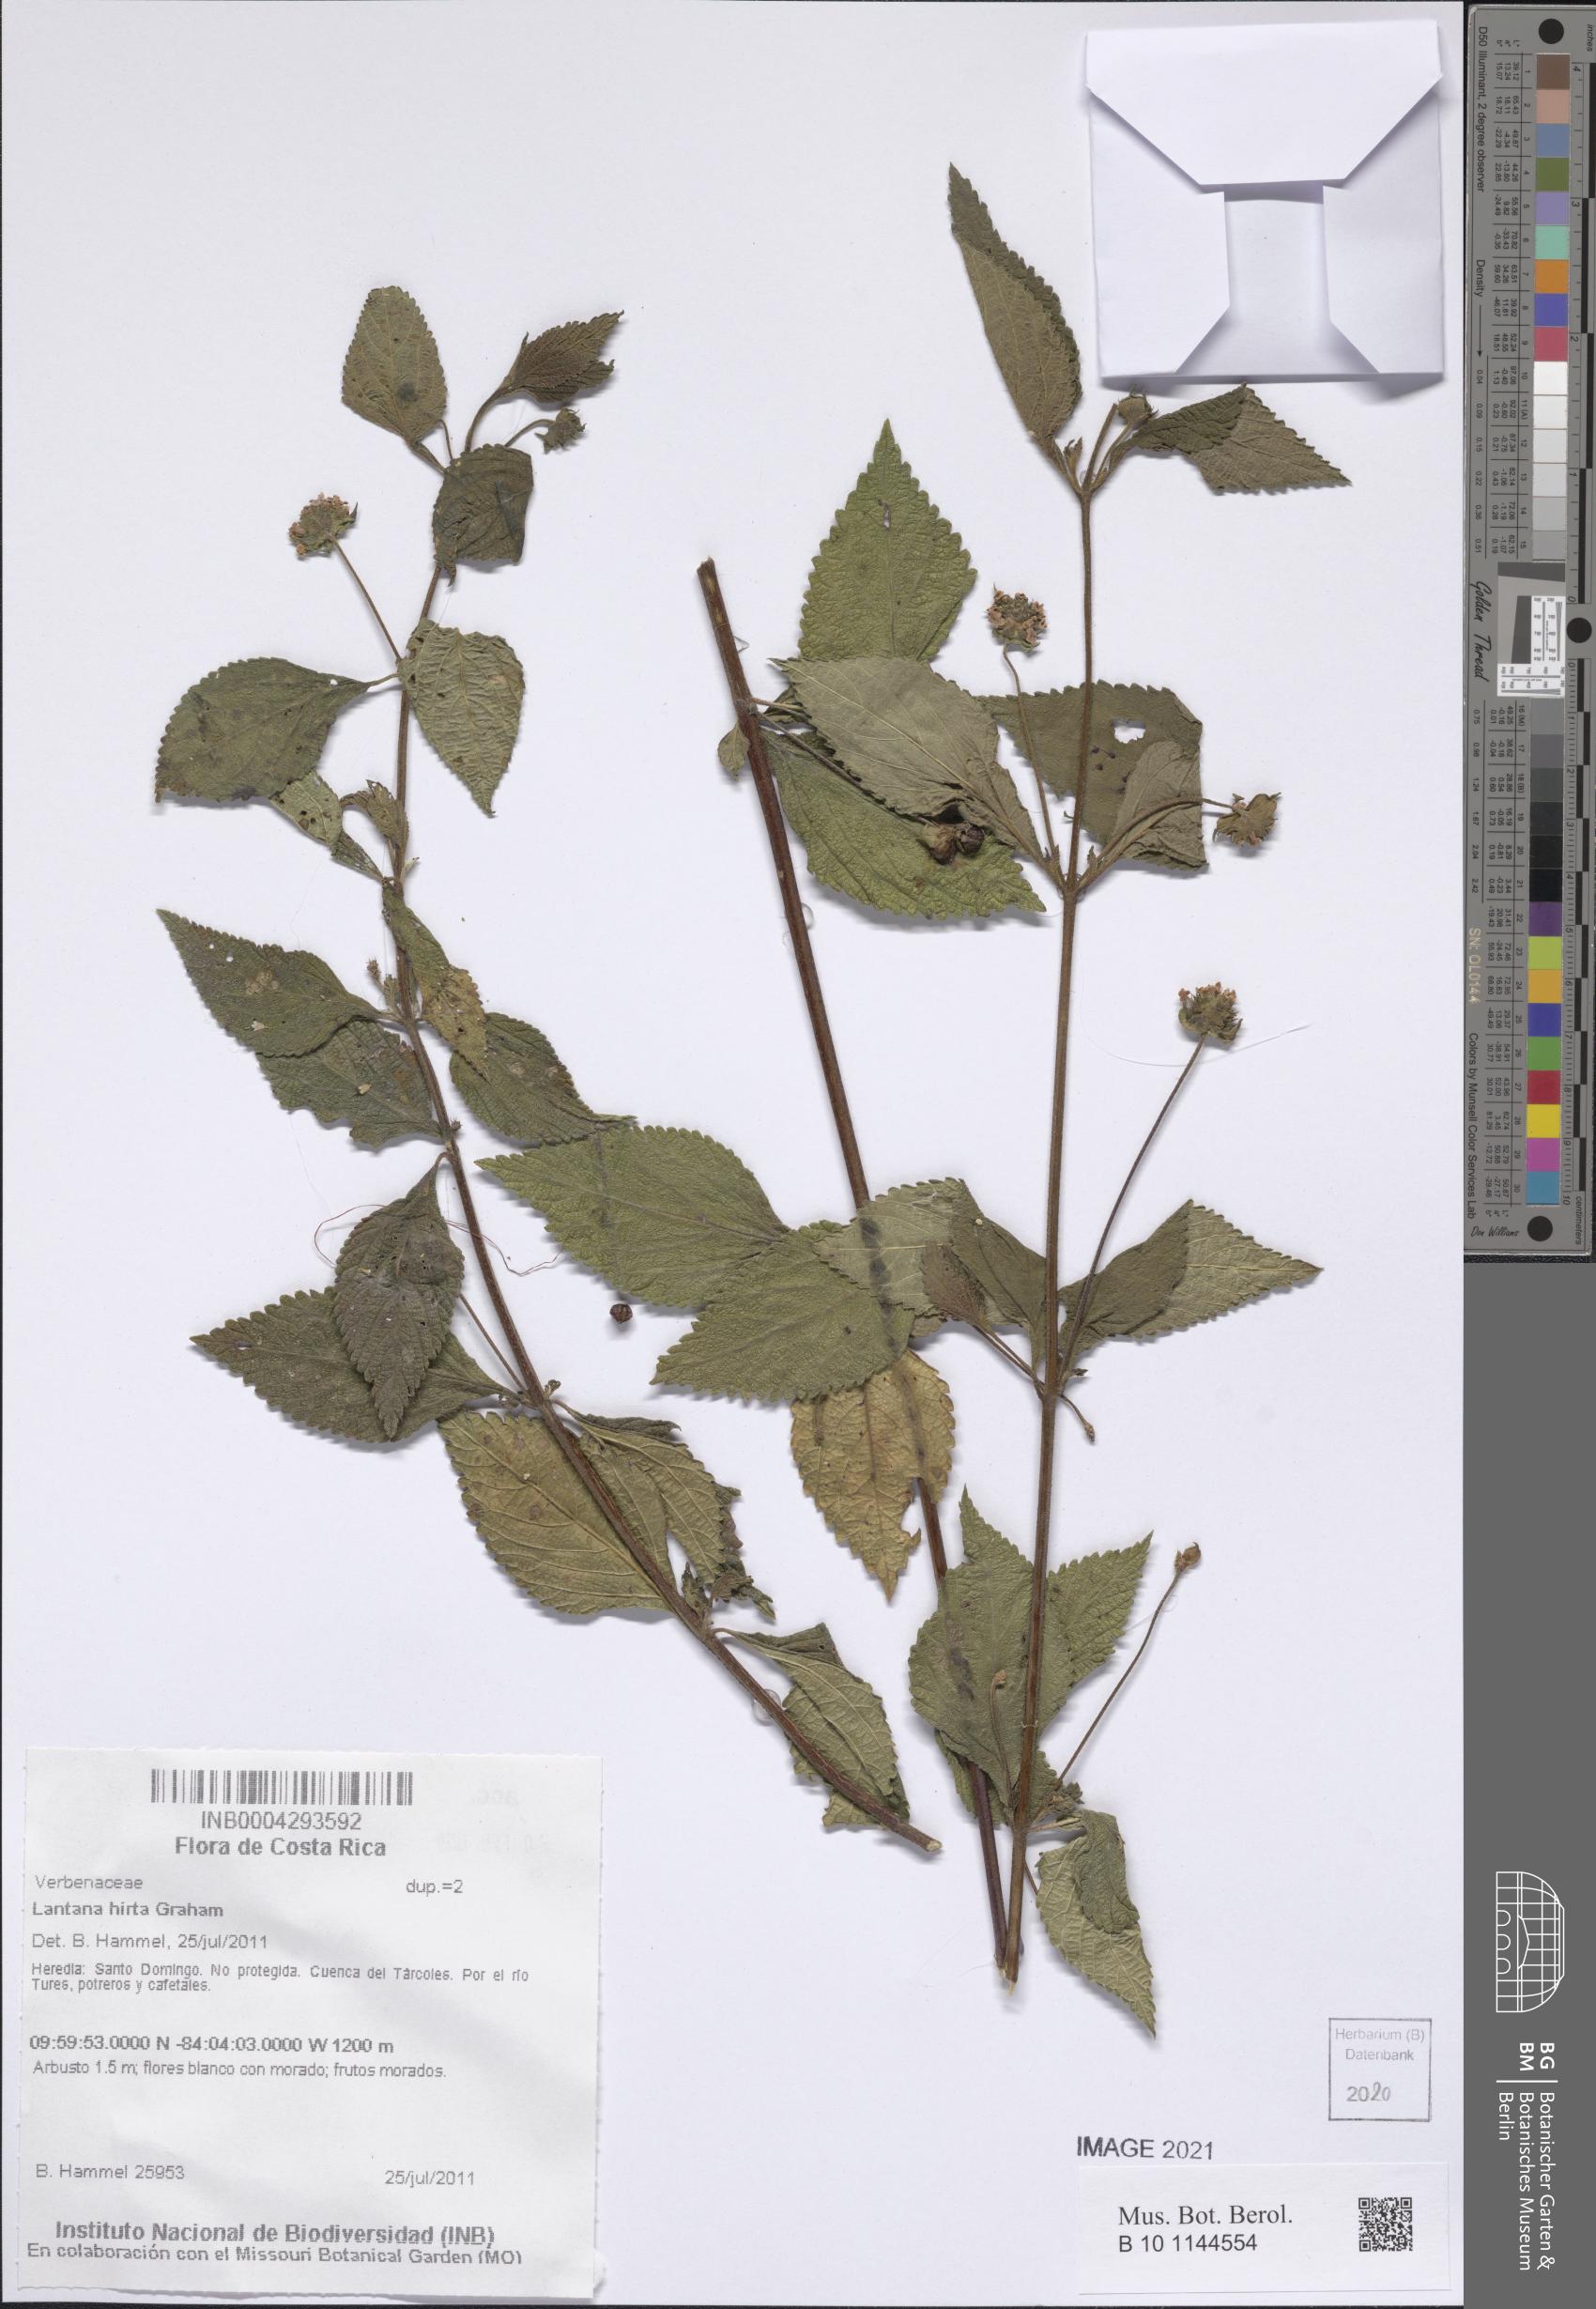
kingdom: Plantae
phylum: Tracheophyta
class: Magnoliopsida
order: Lamiales
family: Verbenaceae
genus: Lantana
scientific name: Lantana hirta
